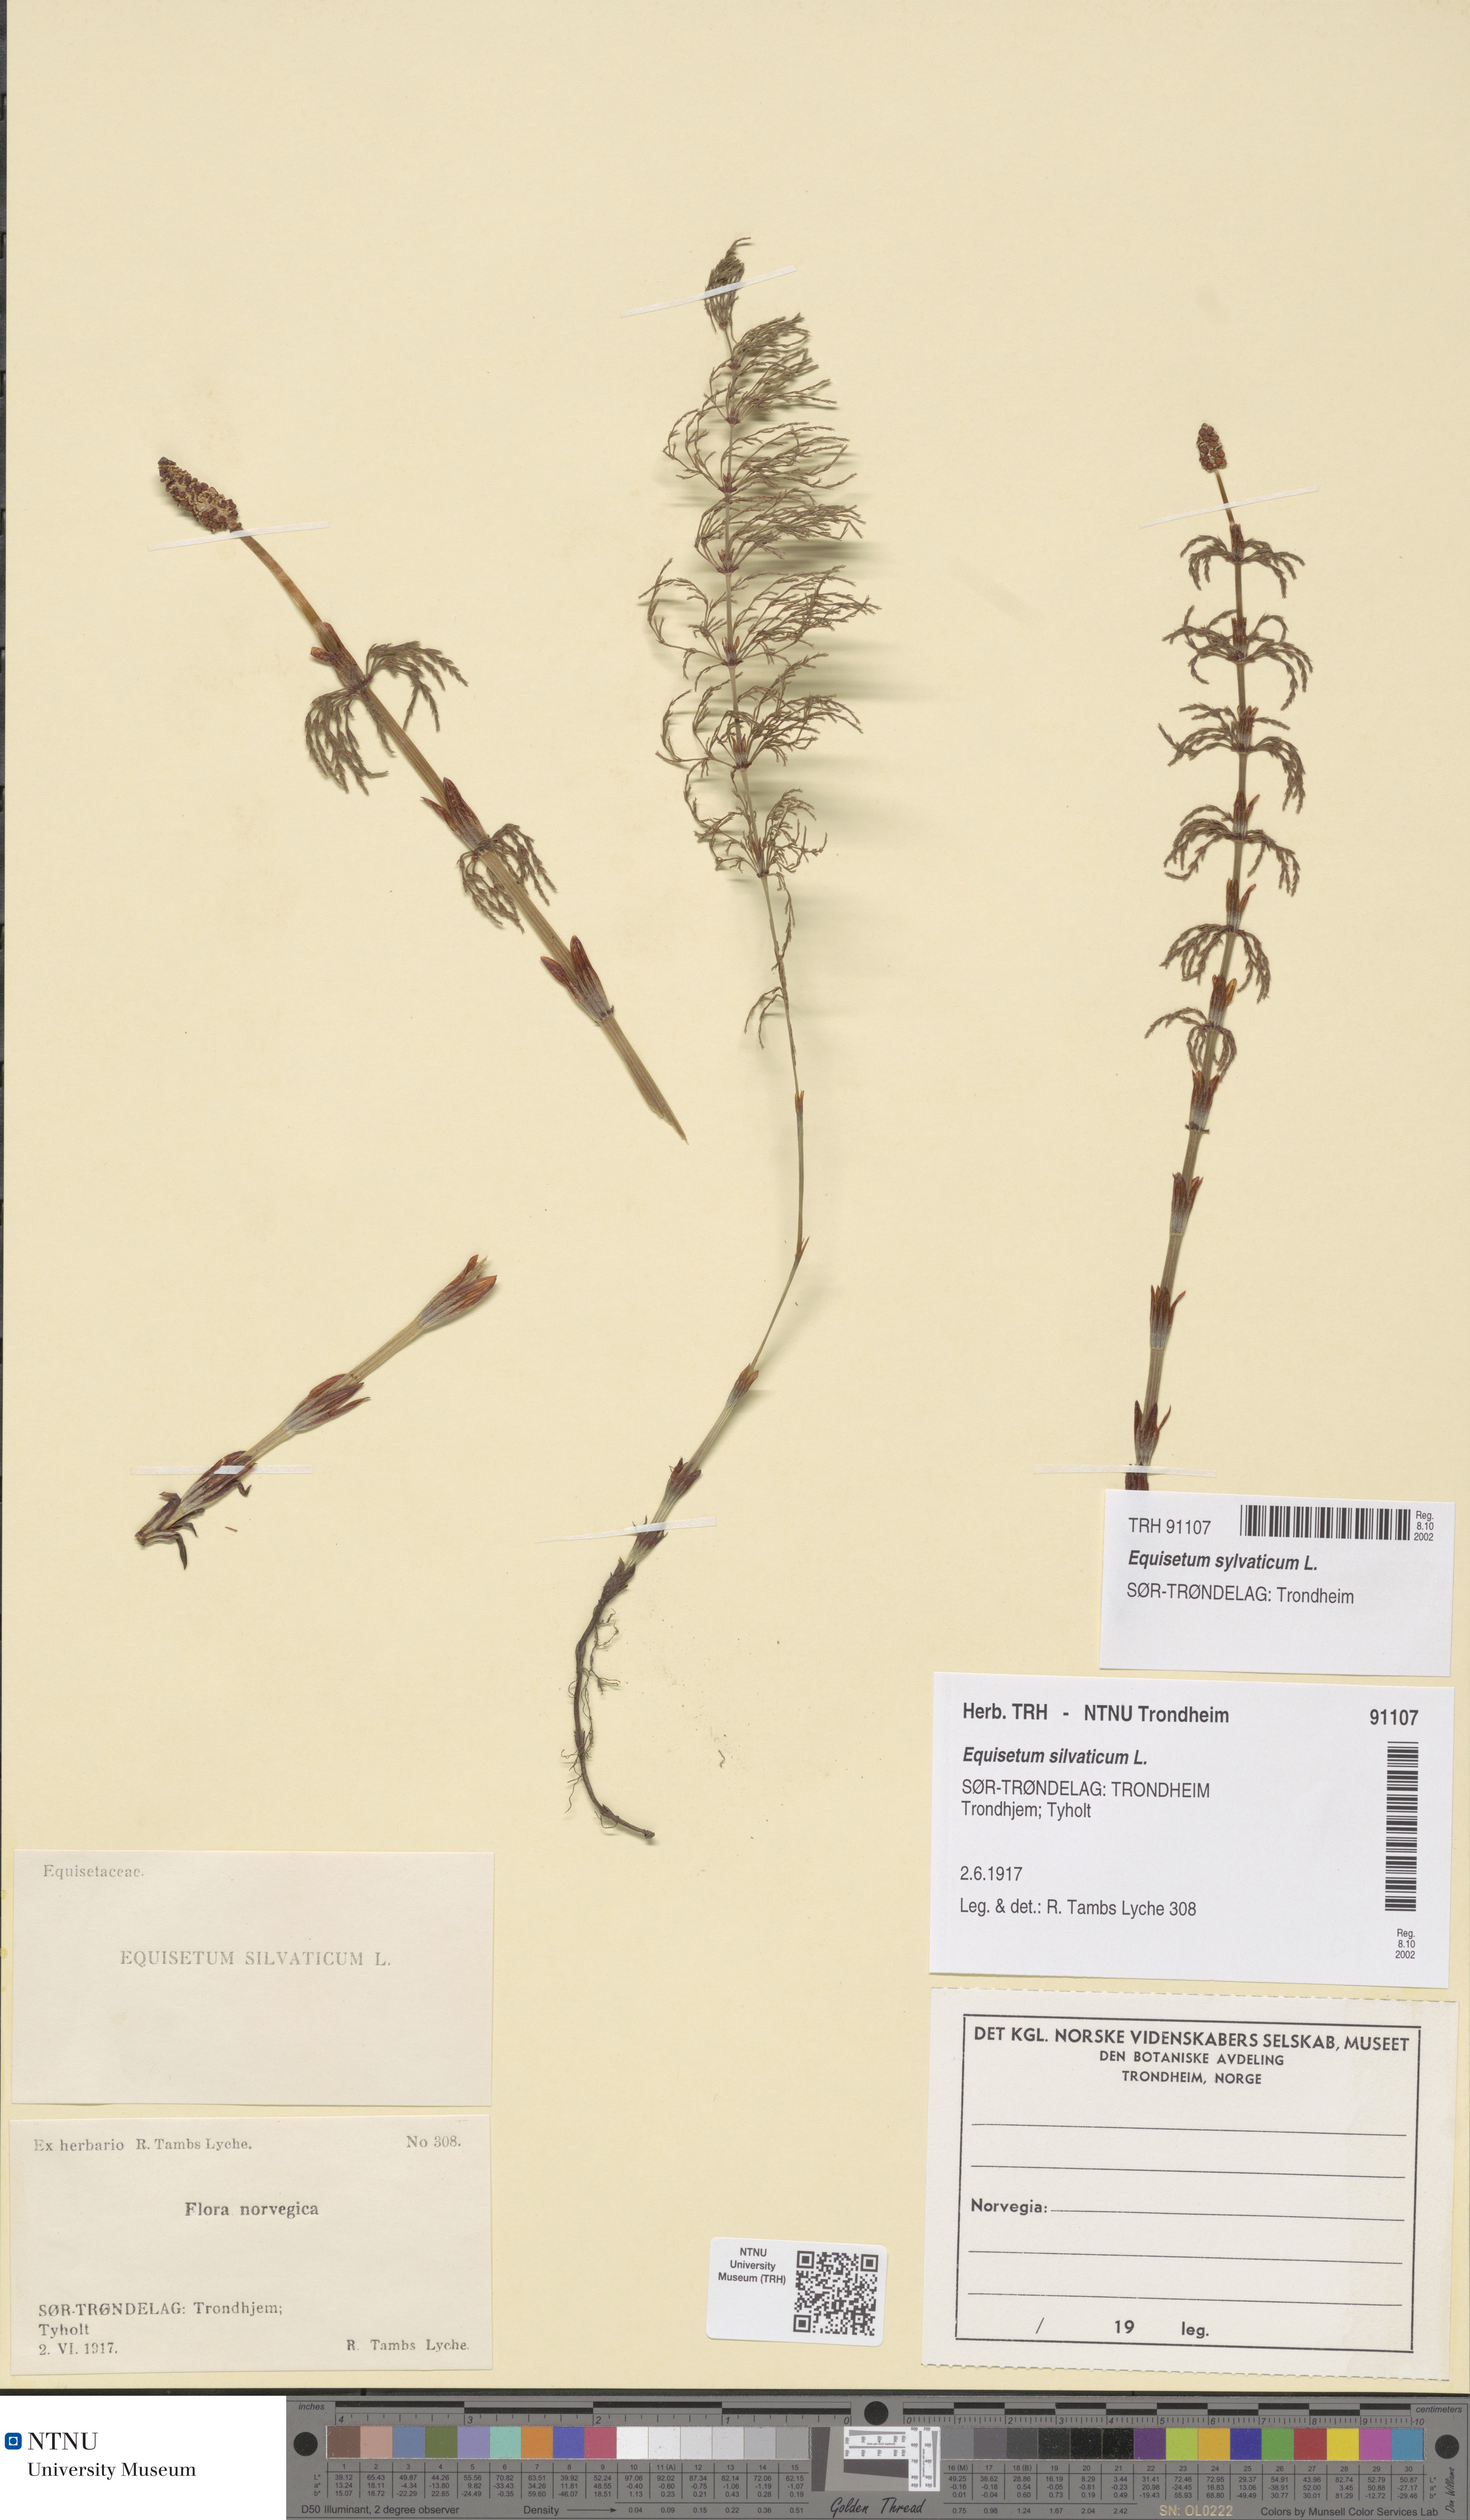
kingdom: Plantae
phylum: Tracheophyta
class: Polypodiopsida
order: Equisetales
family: Equisetaceae
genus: Equisetum
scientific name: Equisetum sylvaticum
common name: Wood horsetail
